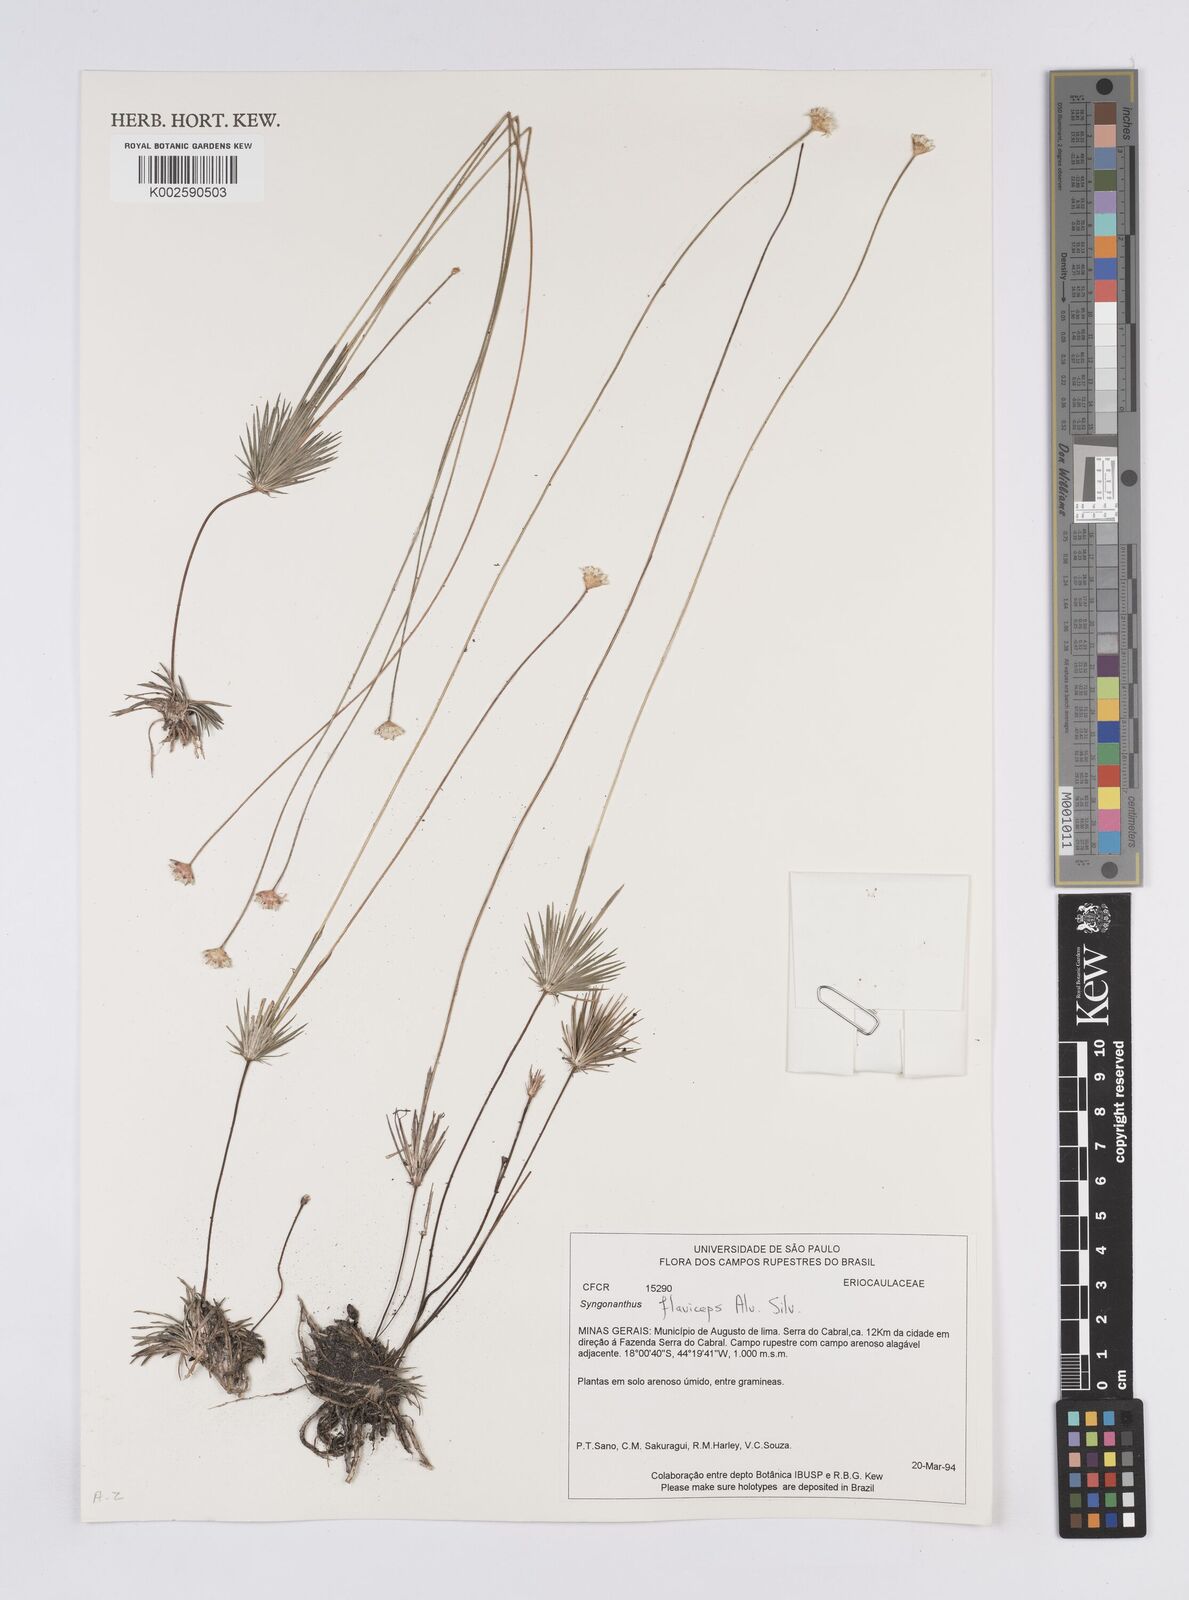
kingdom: Plantae
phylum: Tracheophyta
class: Liliopsida
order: Poales
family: Eriocaulaceae
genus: Syngonanthus
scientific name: Syngonanthus flaviceps
